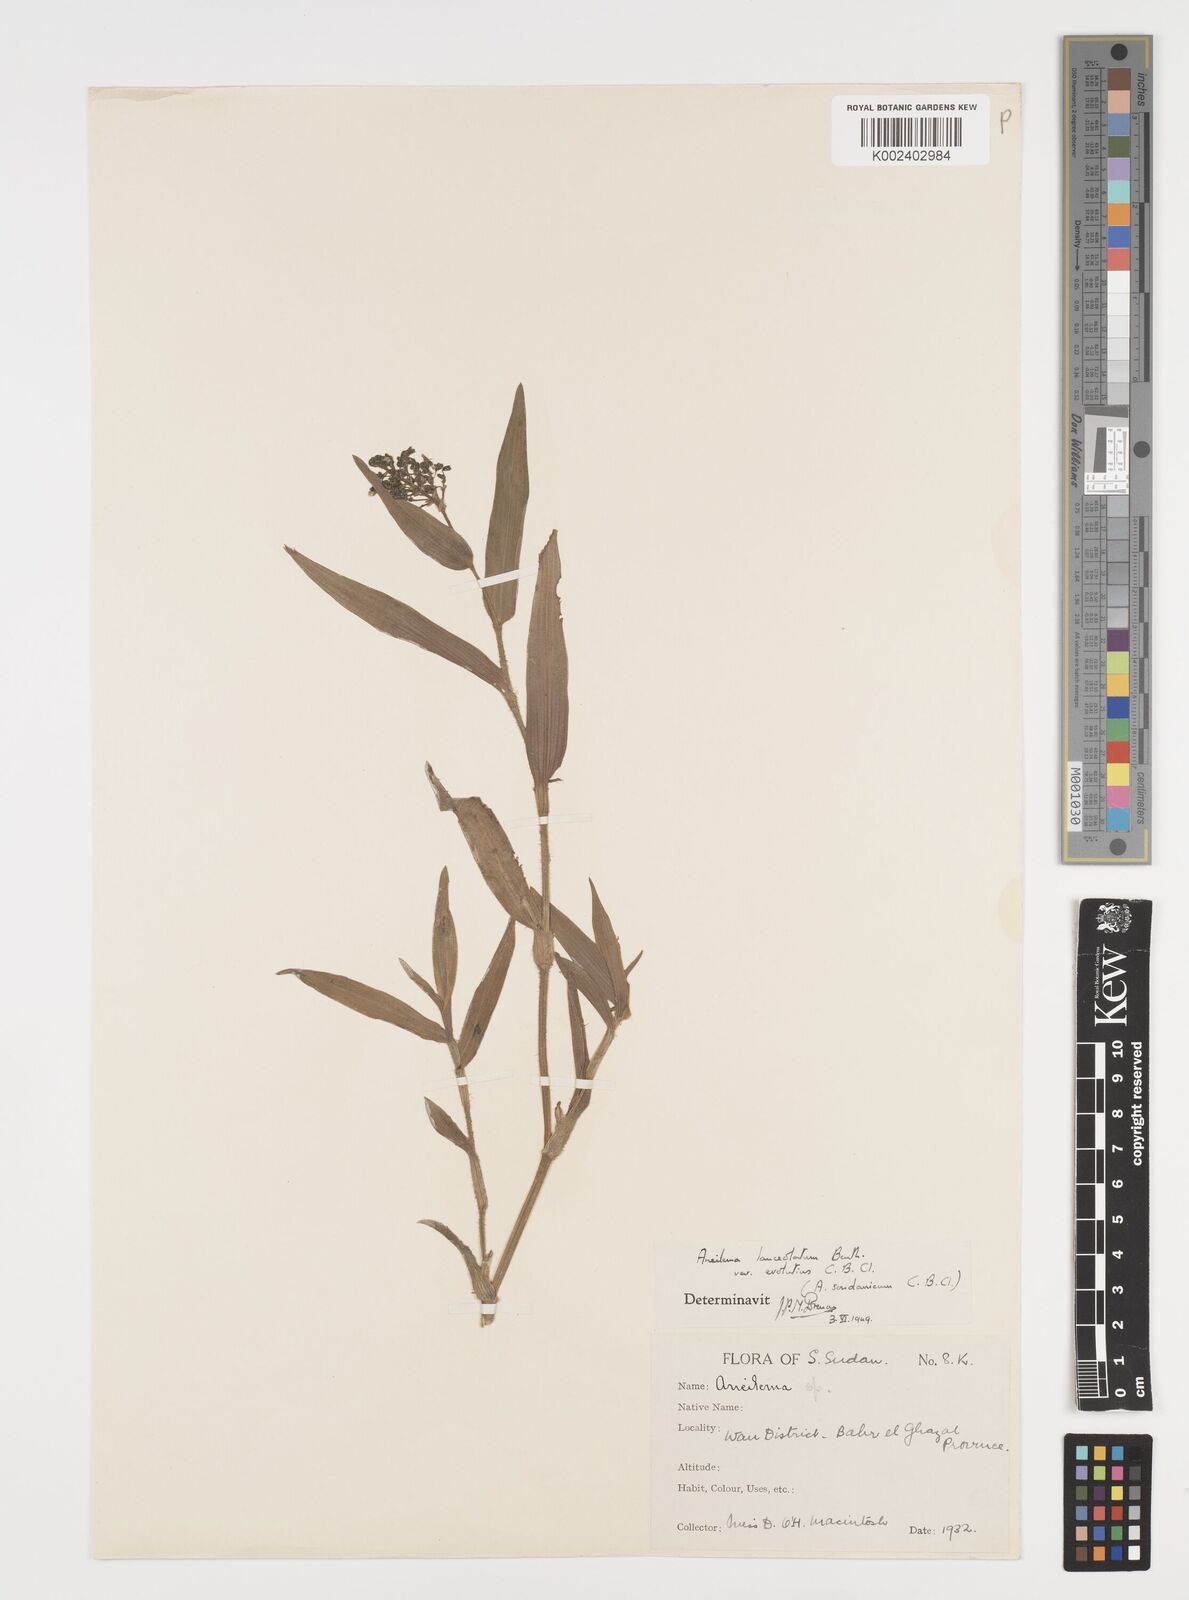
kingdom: Plantae
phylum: Tracheophyta
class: Liliopsida
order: Commelinales
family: Commelinaceae
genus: Aneilema
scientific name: Aneilema lanceolatum
